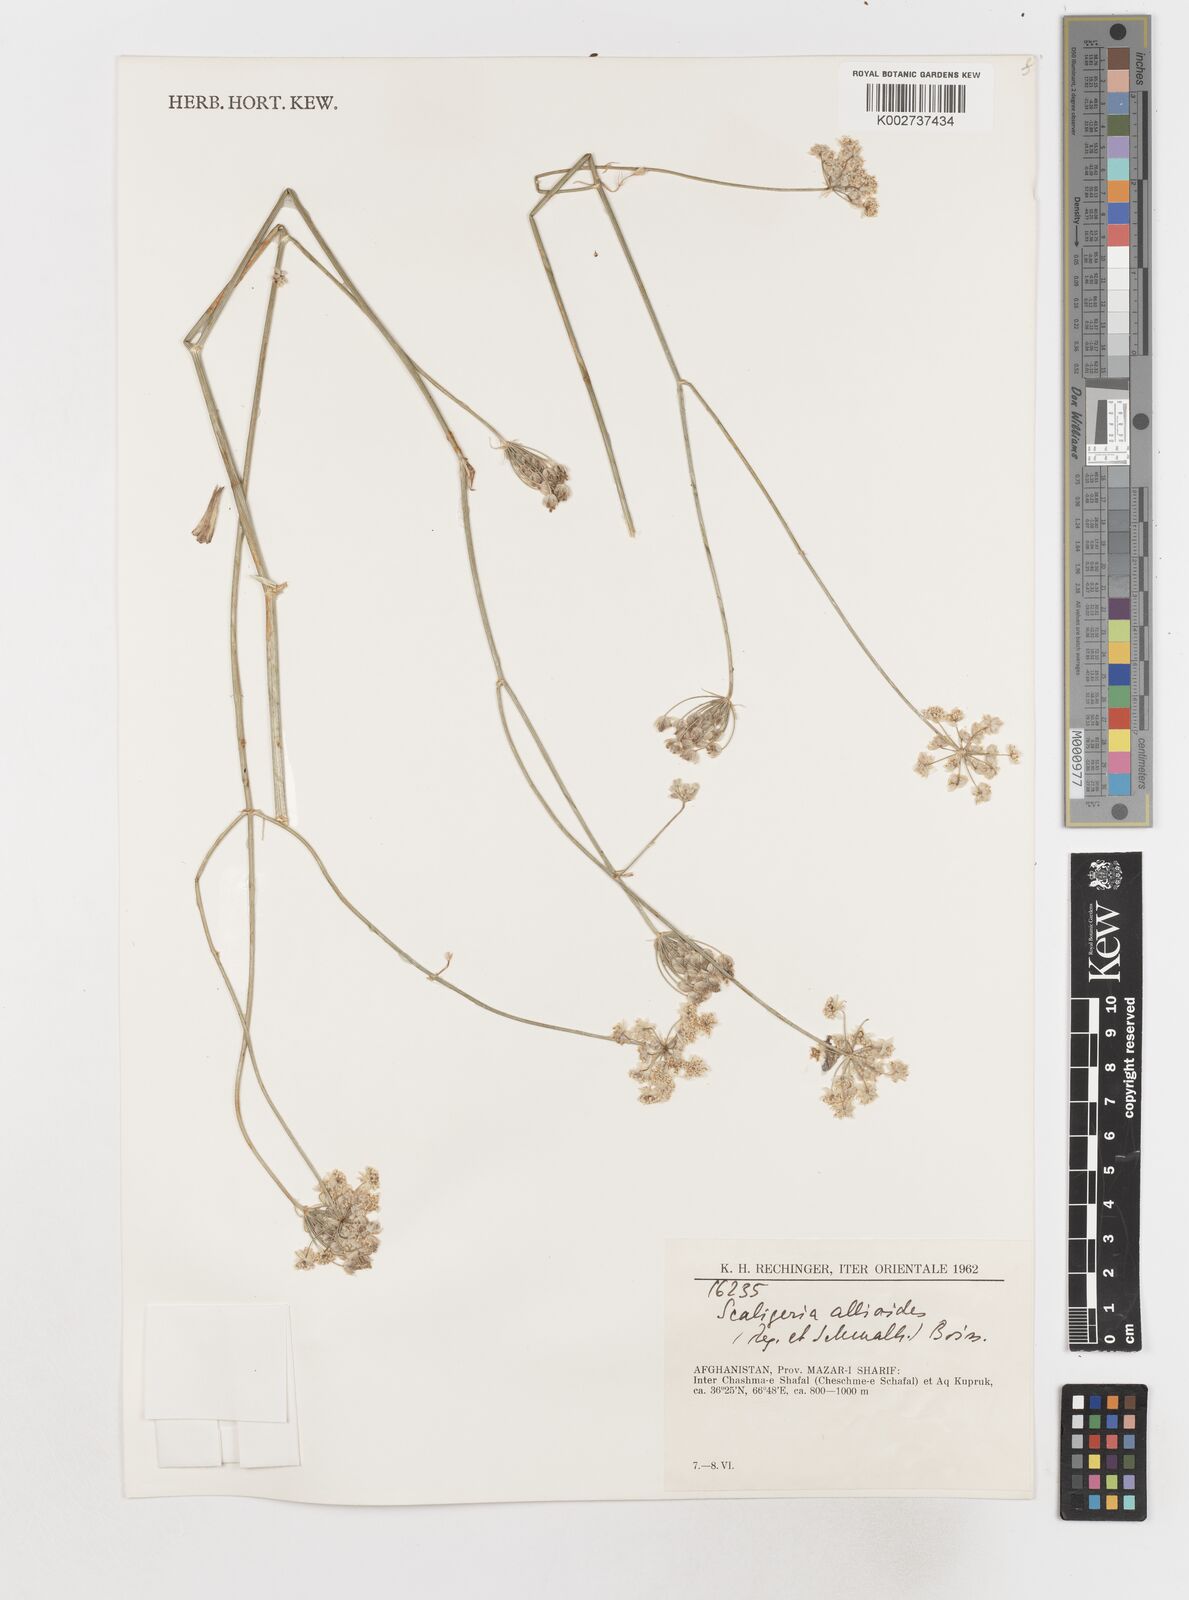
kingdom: Plantae
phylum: Tracheophyta
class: Magnoliopsida
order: Apiales
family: Apiaceae
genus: Scaligeria
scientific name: Scaligeria allioides
